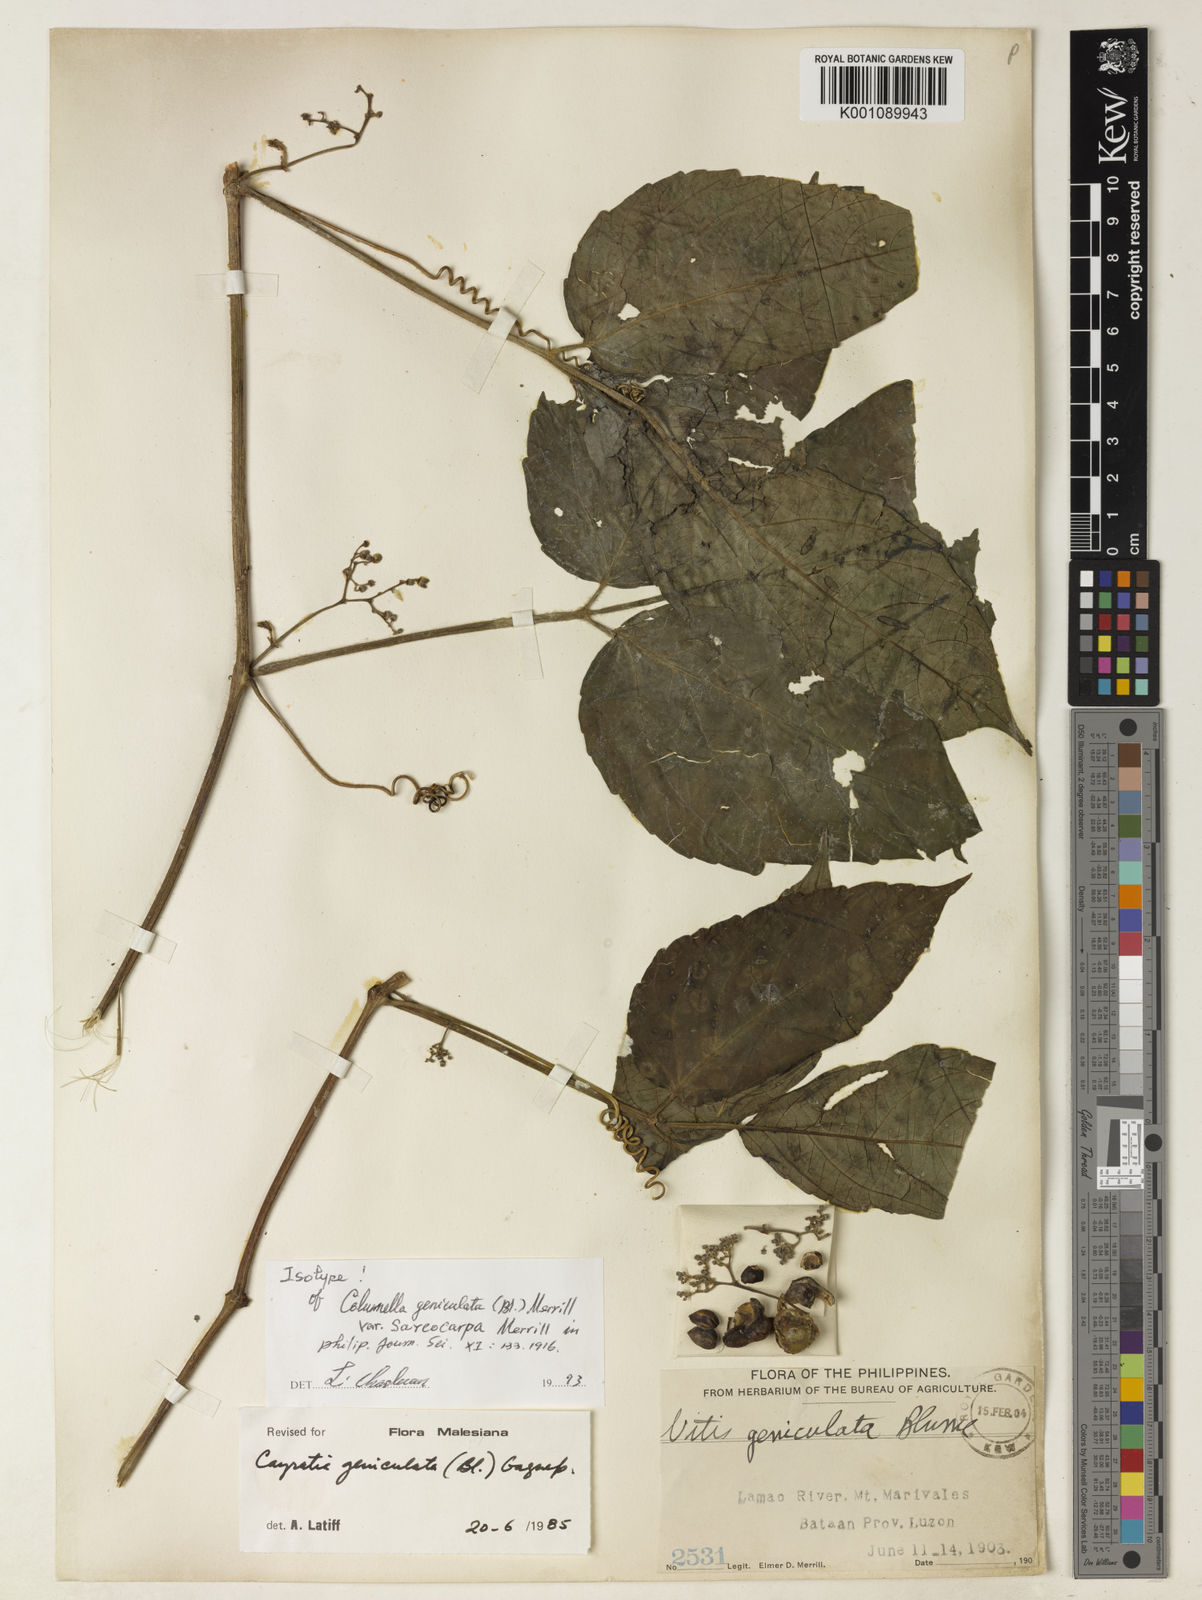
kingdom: Plantae
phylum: Tracheophyta
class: Magnoliopsida
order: Vitales
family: Vitaceae
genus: Cayratia
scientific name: Cayratia mollissima
